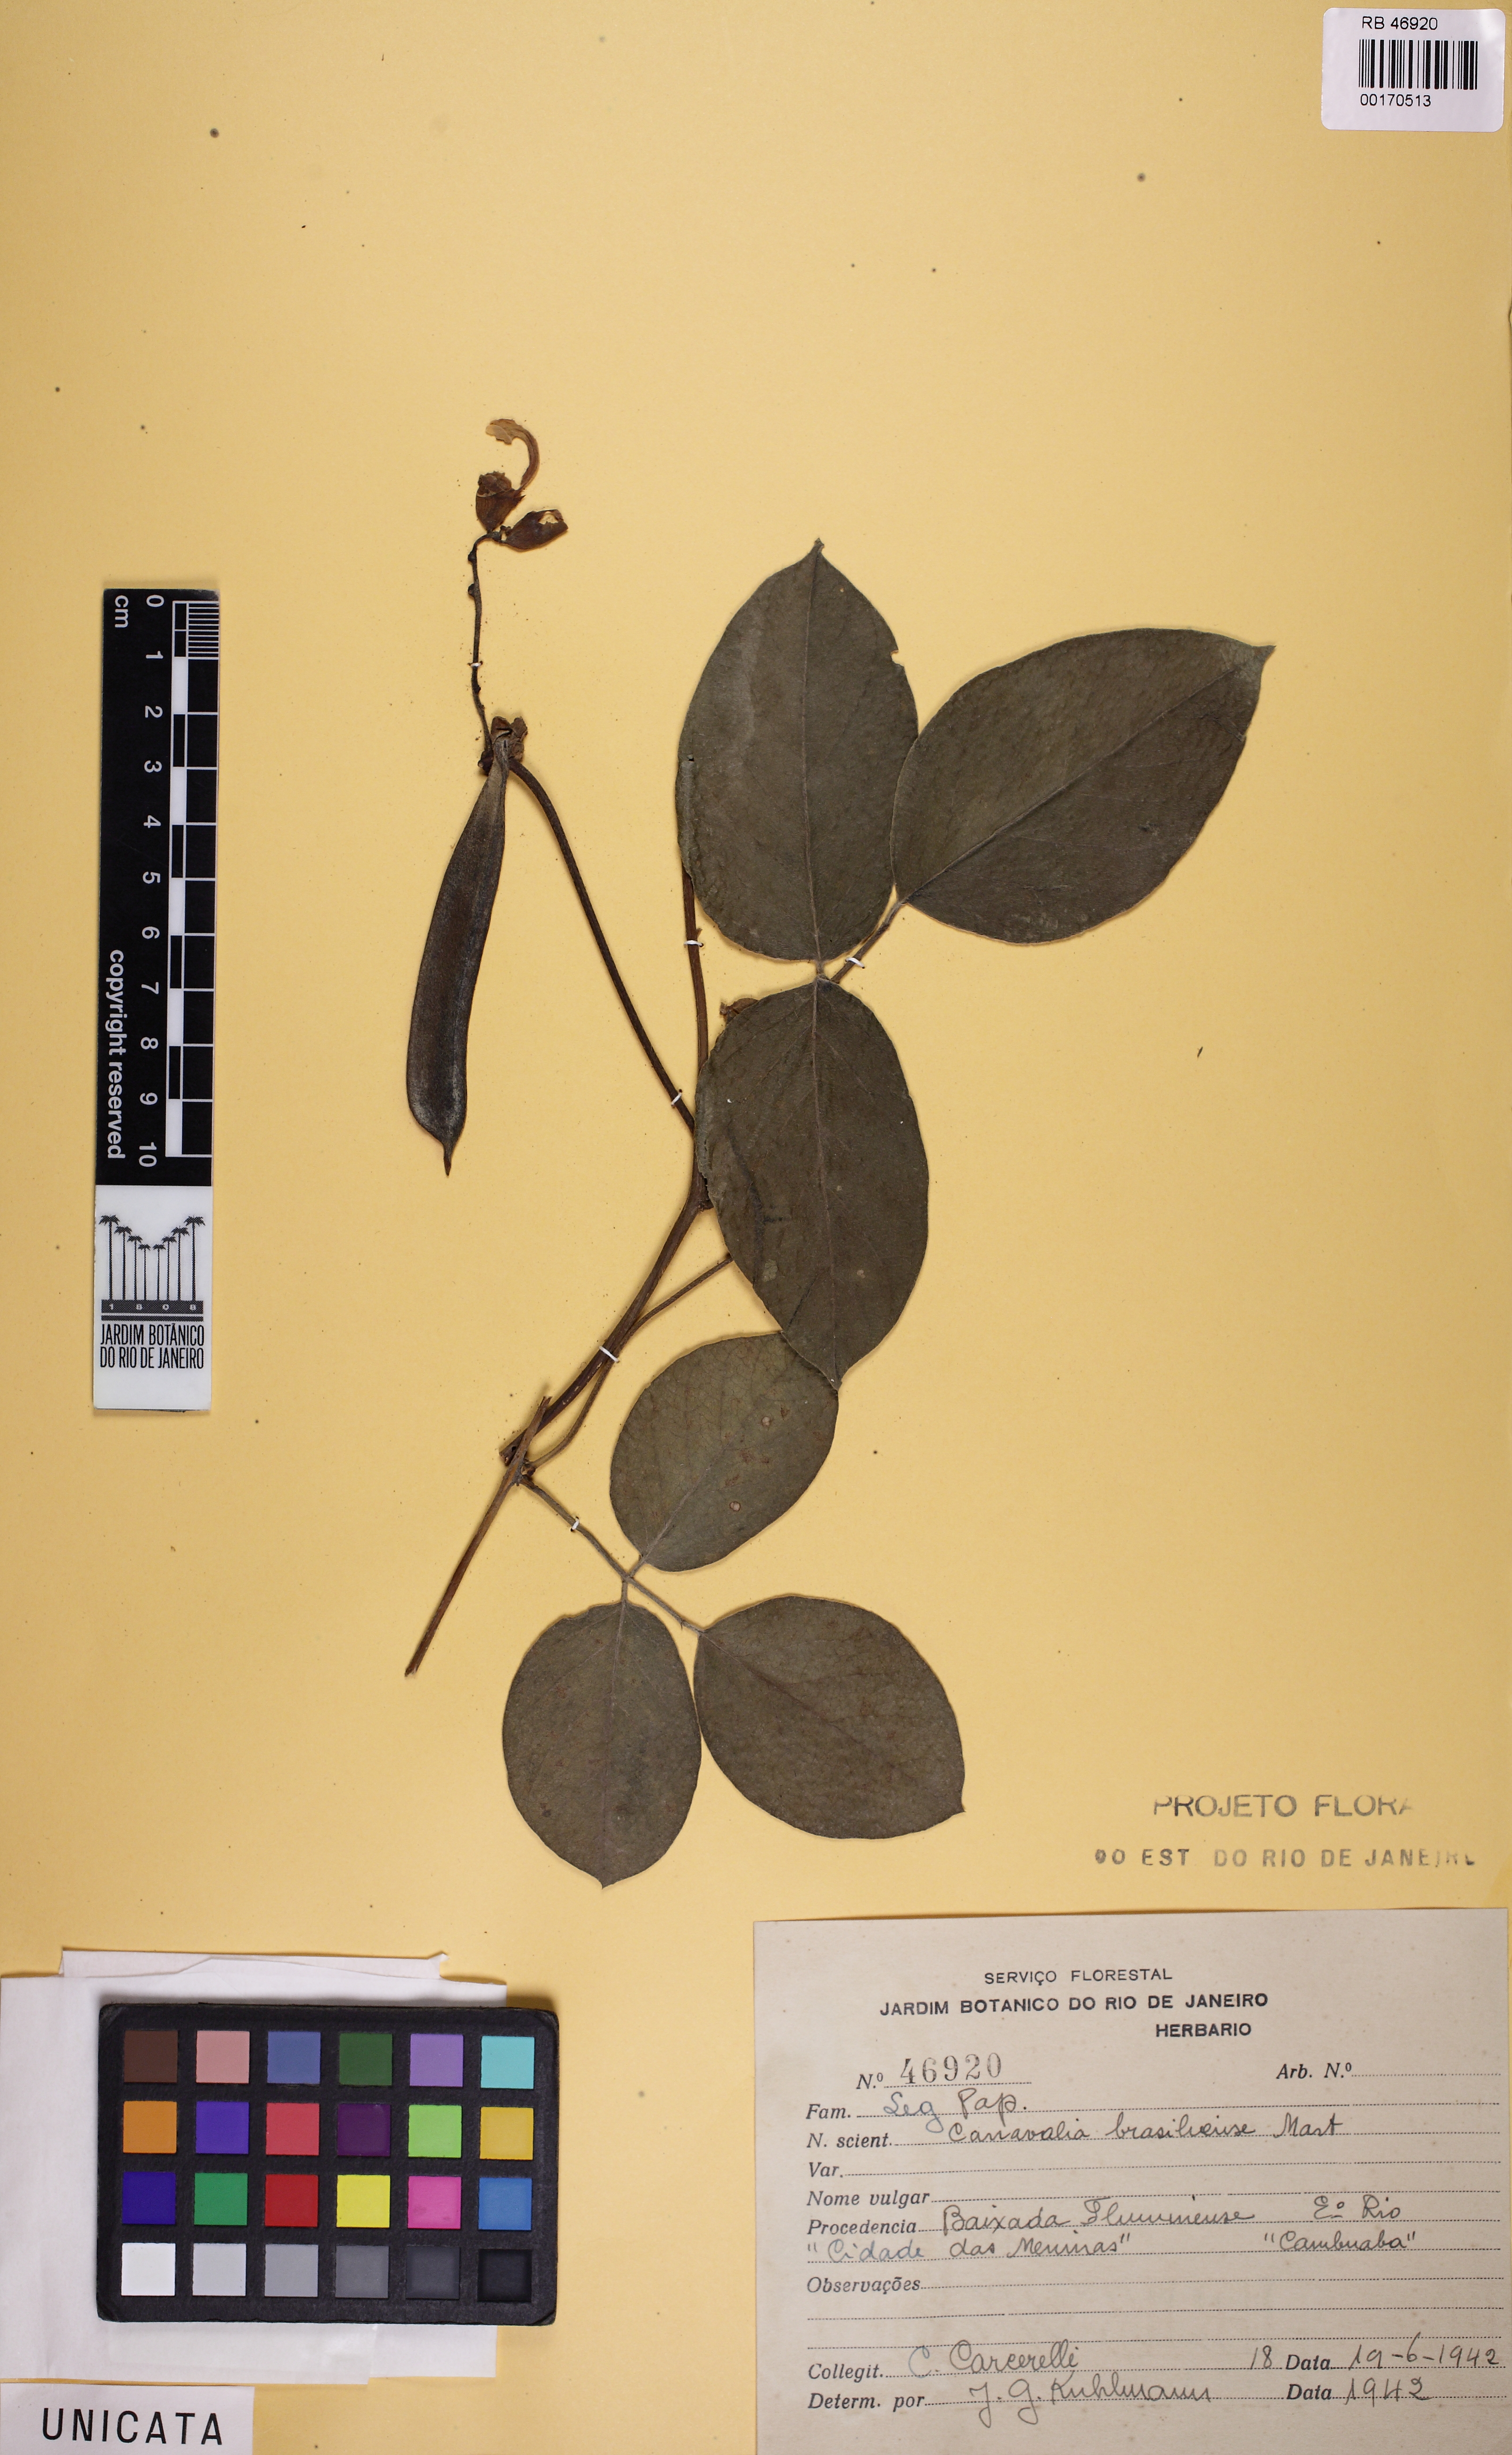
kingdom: Plantae
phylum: Tracheophyta
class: Magnoliopsida
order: Fabales
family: Fabaceae
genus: Canavalia
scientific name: Canavalia brasiliensis
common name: Barbicou-bean
